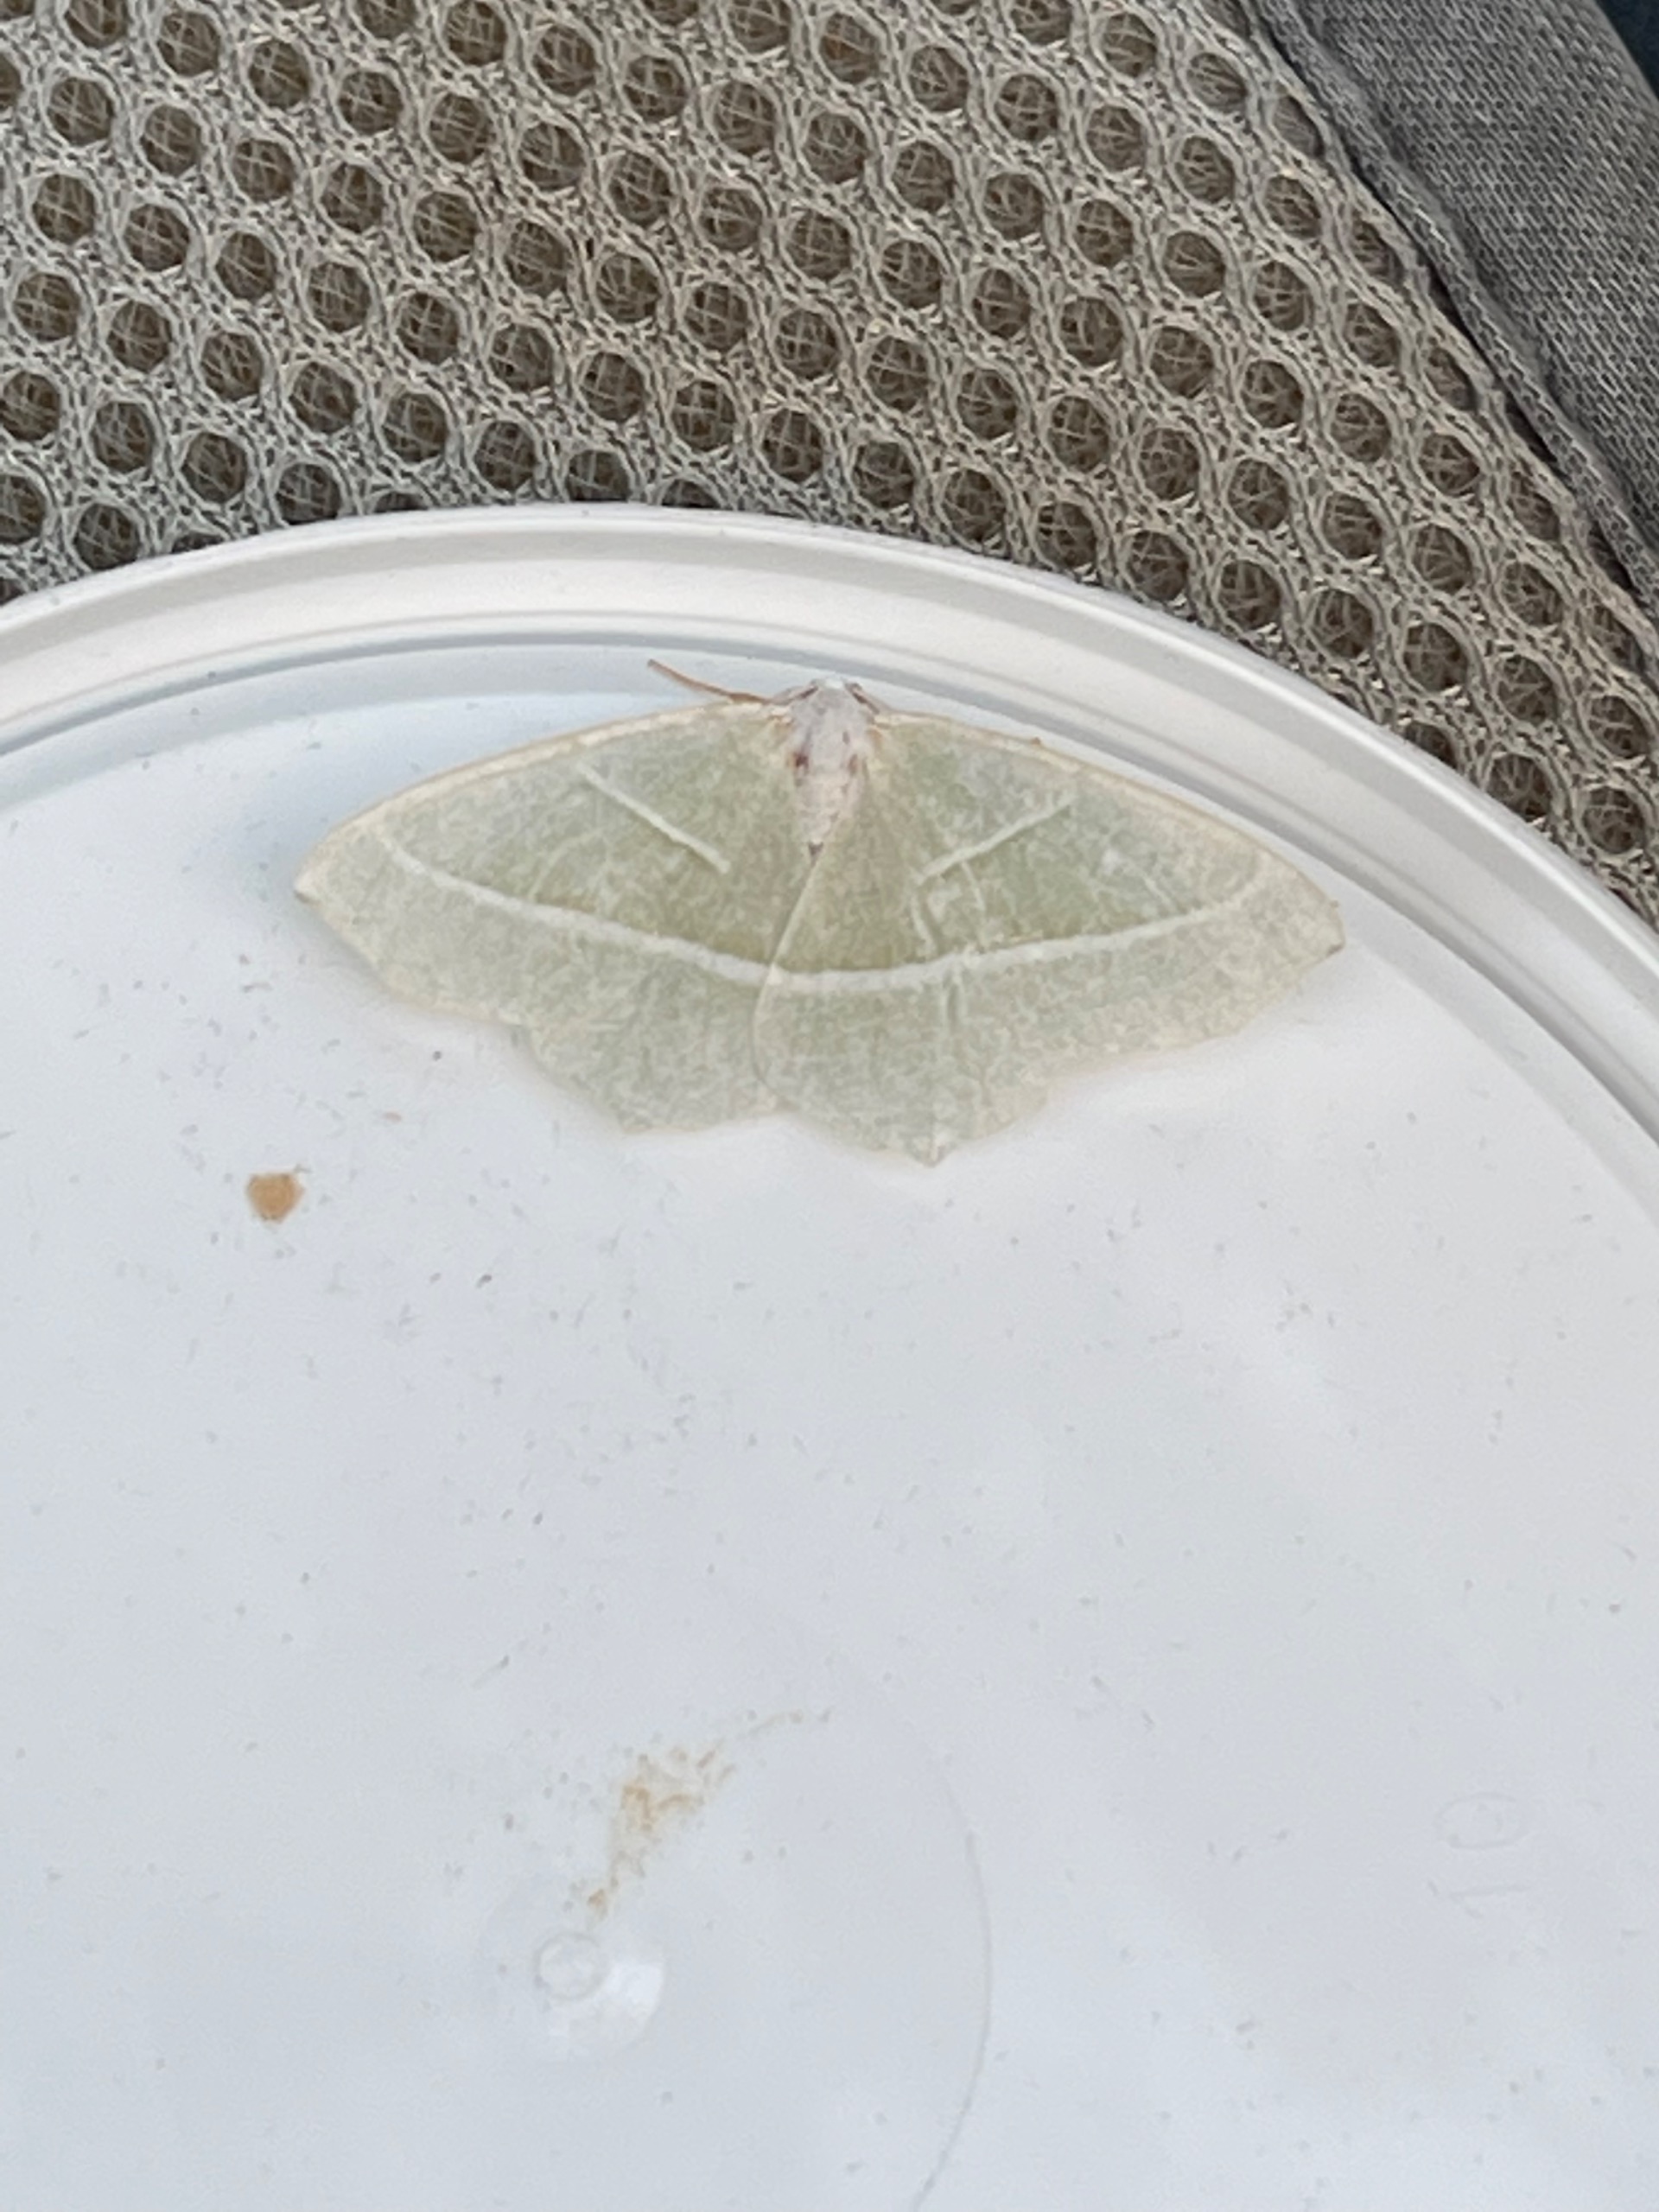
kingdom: Animalia
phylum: Arthropoda
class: Insecta
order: Lepidoptera
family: Geometridae
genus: Campaea
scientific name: Campaea margaritaria
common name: Perlemåler
